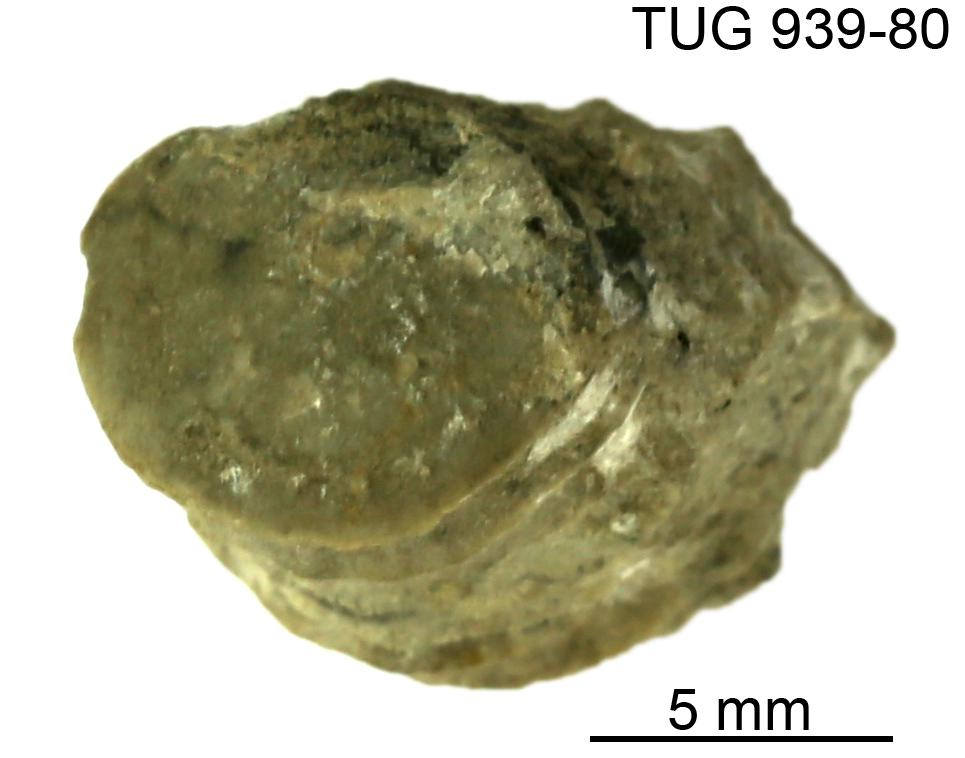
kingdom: Animalia
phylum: Mollusca
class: Cephalopoda
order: Orthocerida
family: Pseudorthoceratidae
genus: Spyroceras
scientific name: Spyroceras
